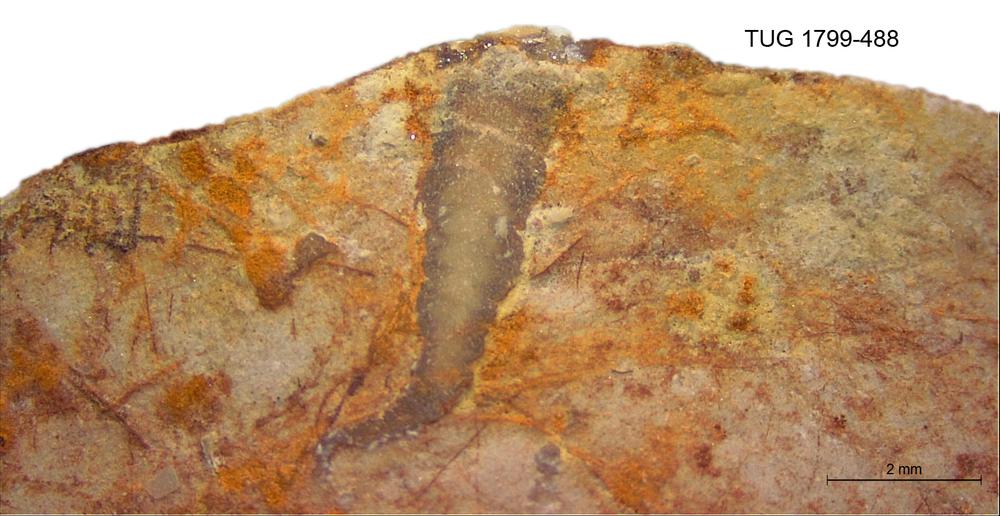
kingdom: Animalia
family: Cornulitidae
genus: Cornulites
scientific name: Cornulites
